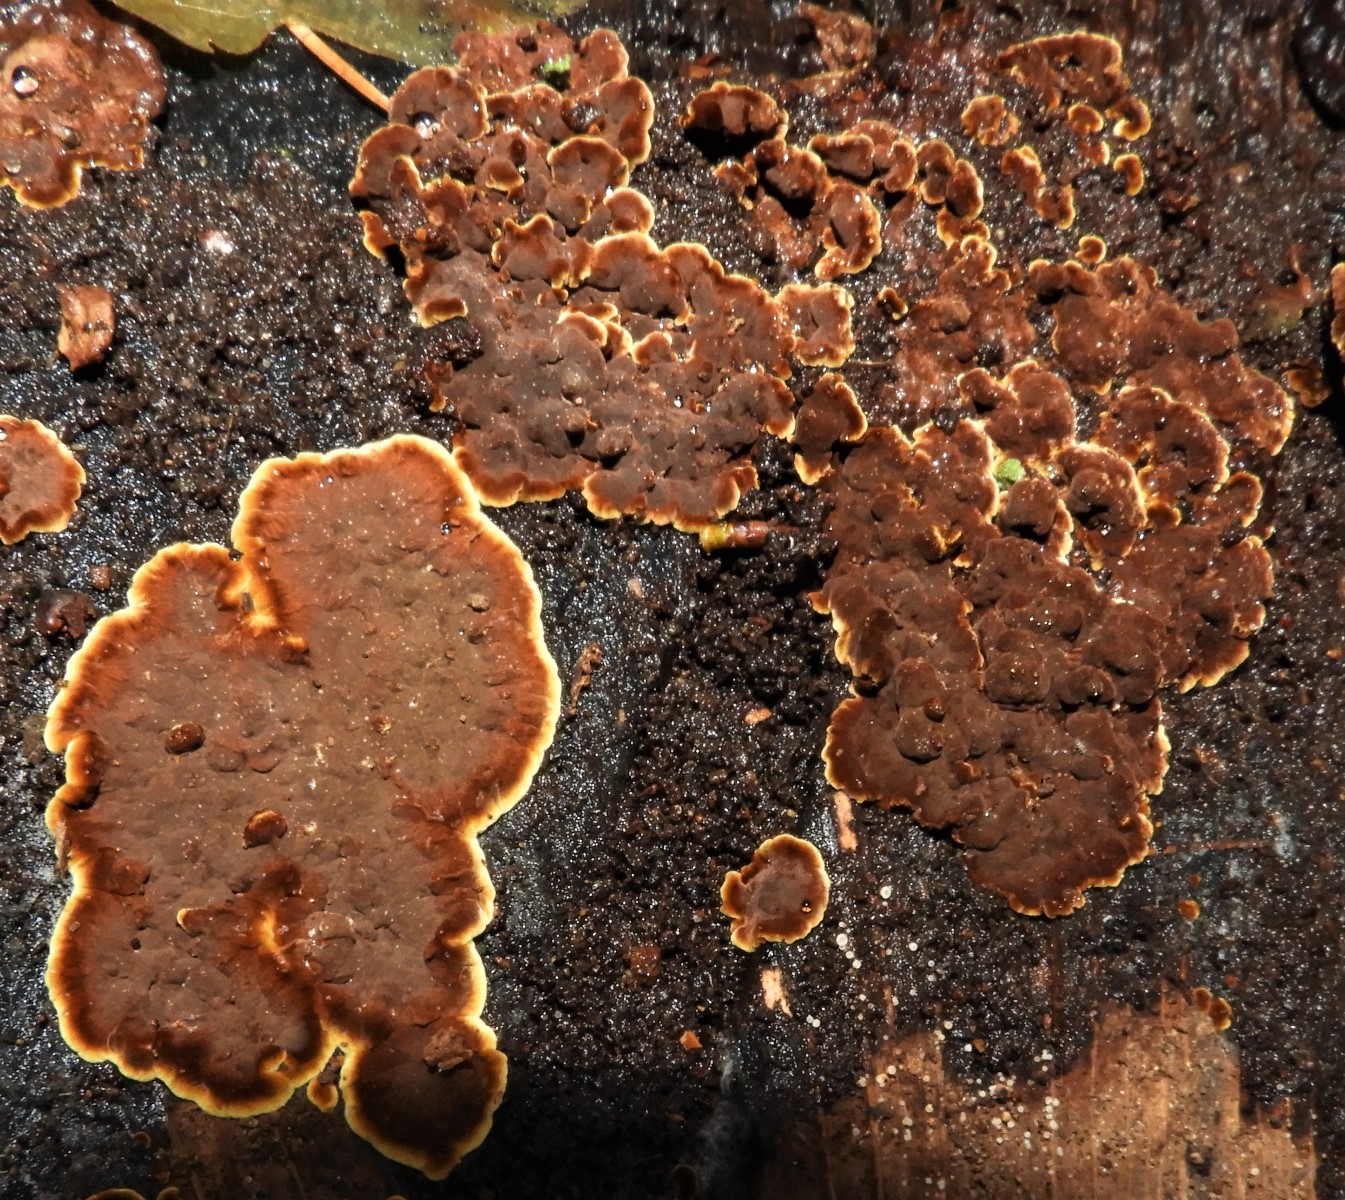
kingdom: Fungi
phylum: Basidiomycota
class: Agaricomycetes
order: Hymenochaetales
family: Hymenochaetaceae
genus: Hymenochaete
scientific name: Hymenochaete rubiginosa
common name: stiv ruslædersvamp
